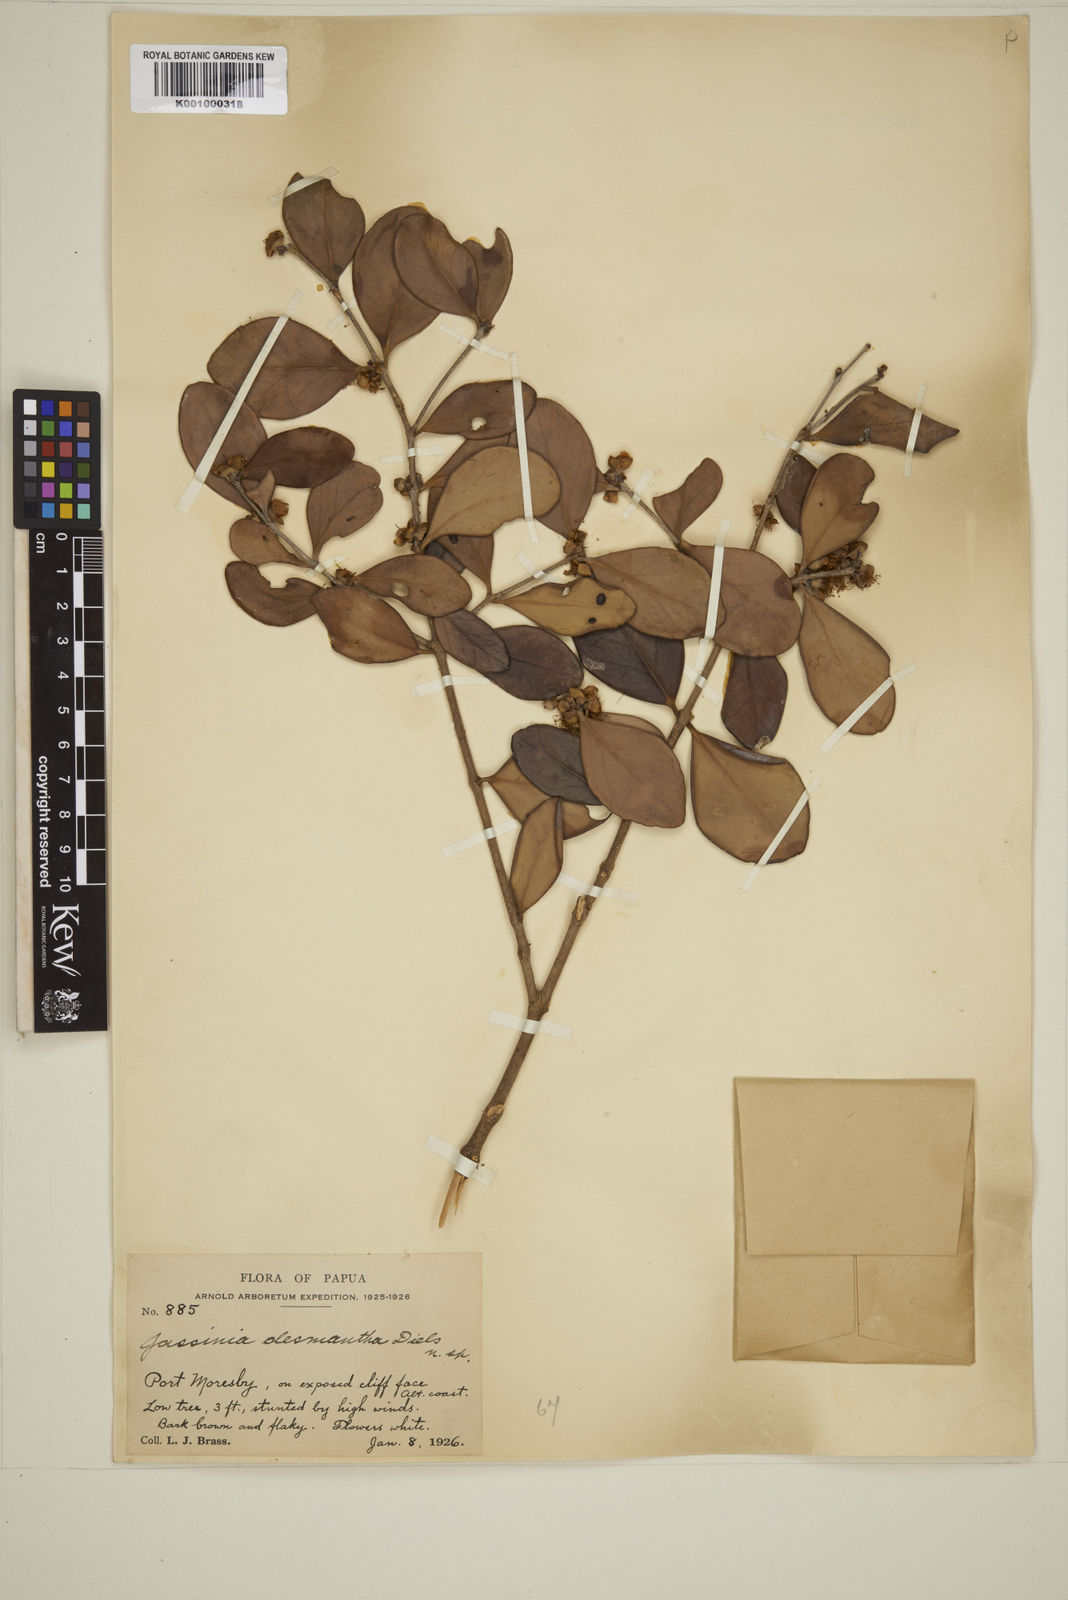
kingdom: Plantae
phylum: Tracheophyta
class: Magnoliopsida
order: Myrtales
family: Myrtaceae
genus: Eugenia
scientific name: Eugenia reinwardtiana
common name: Cedar bay-cherry
